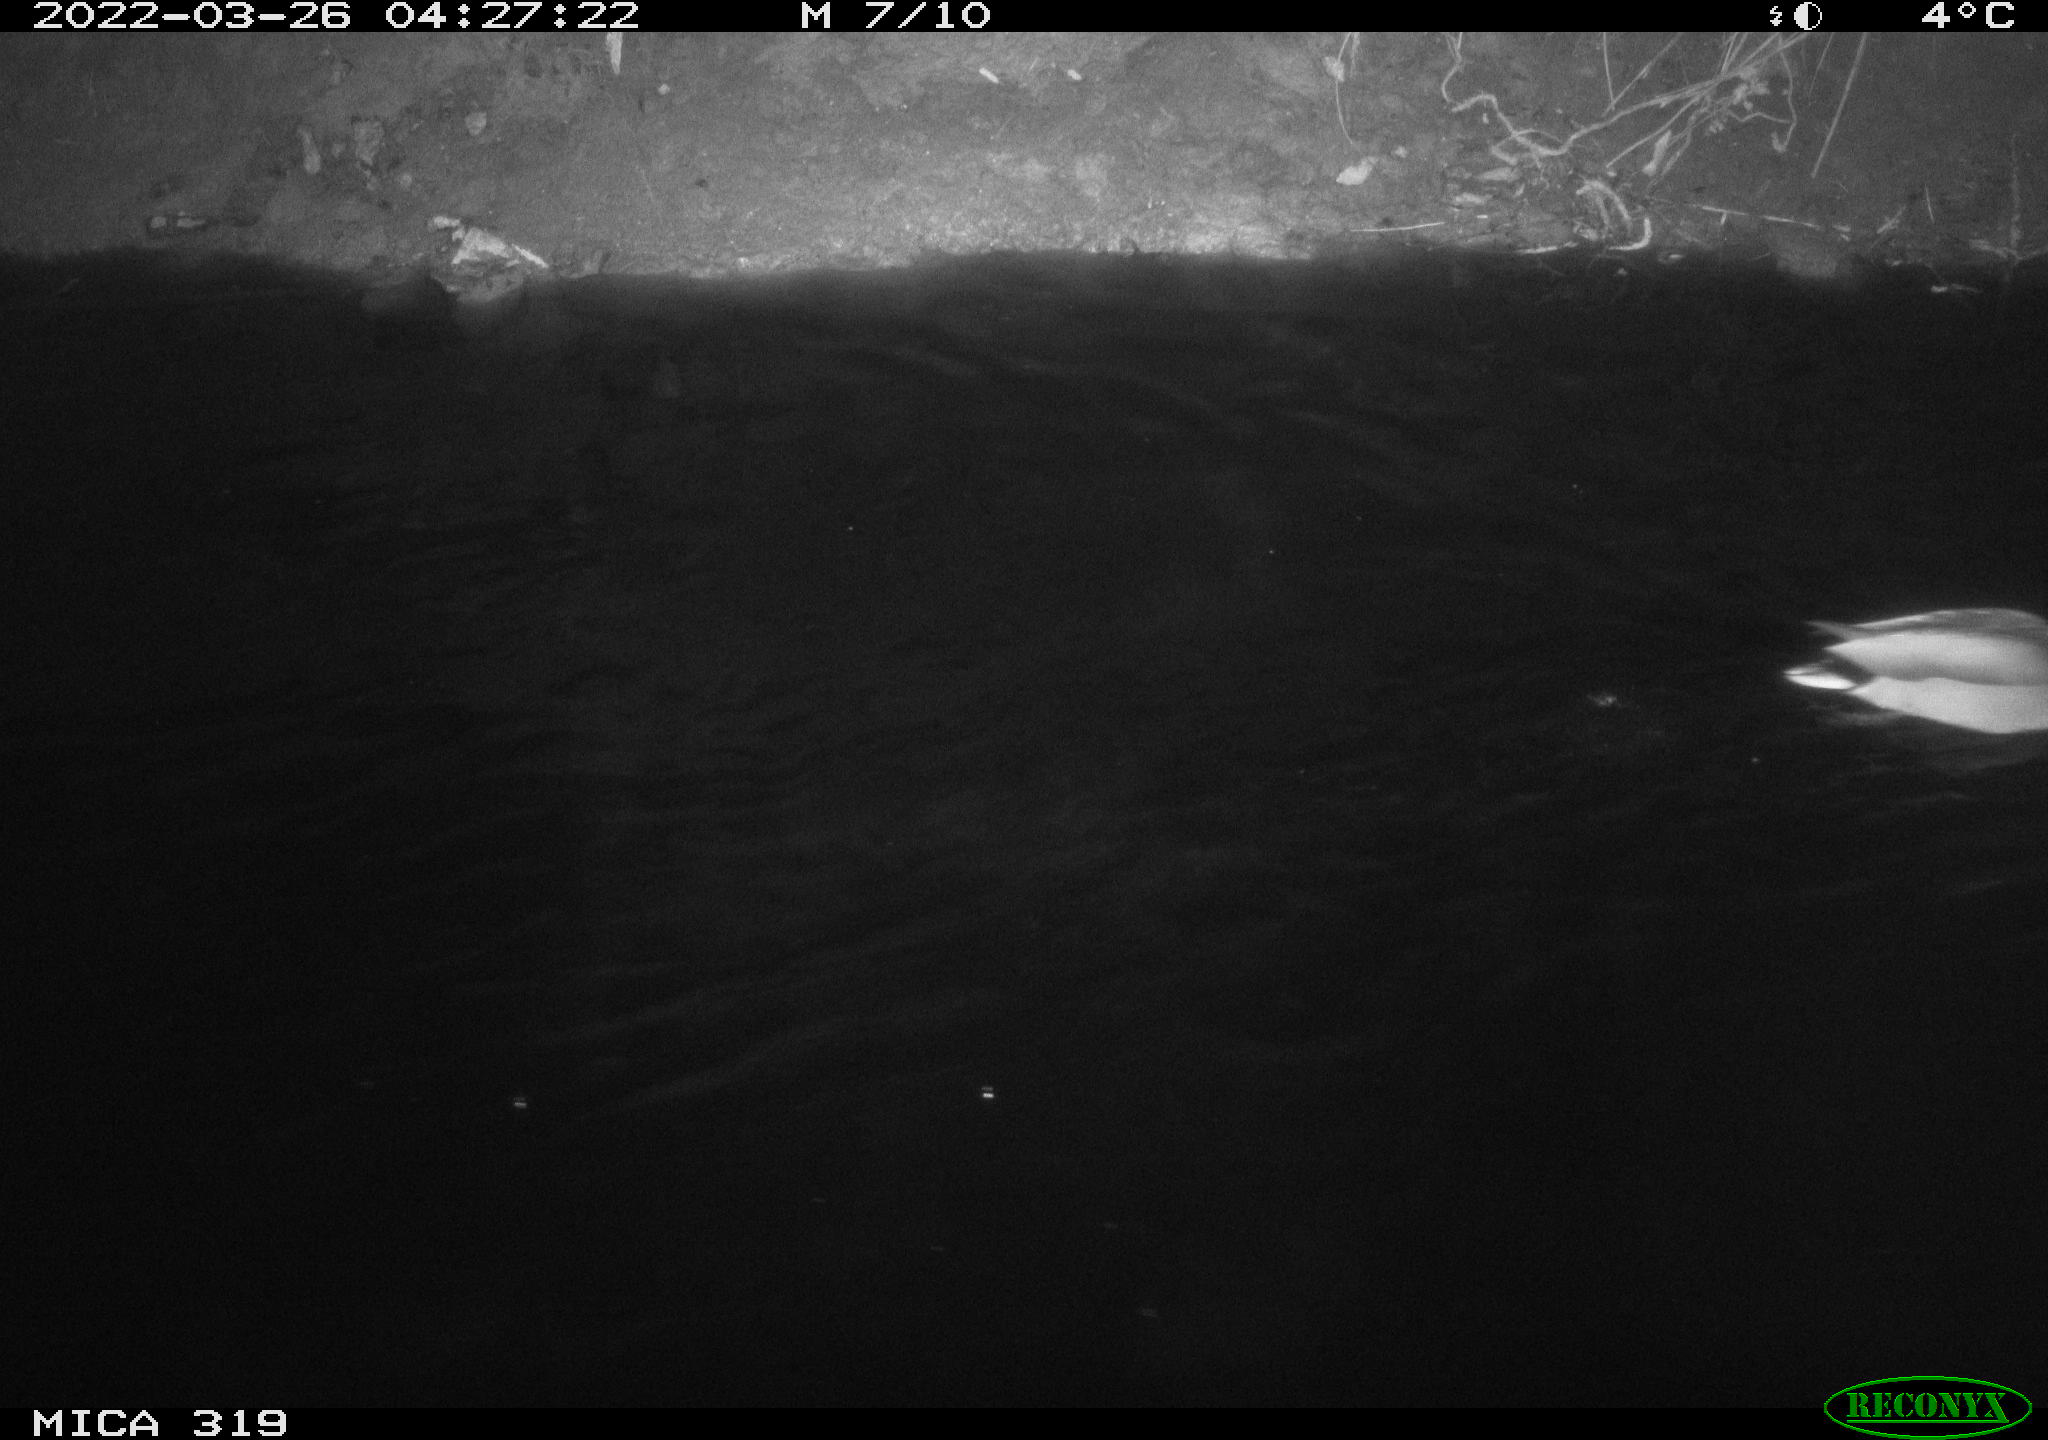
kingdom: Animalia
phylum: Chordata
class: Aves
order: Anseriformes
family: Anatidae
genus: Anas
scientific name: Anas platyrhynchos
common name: Mallard
